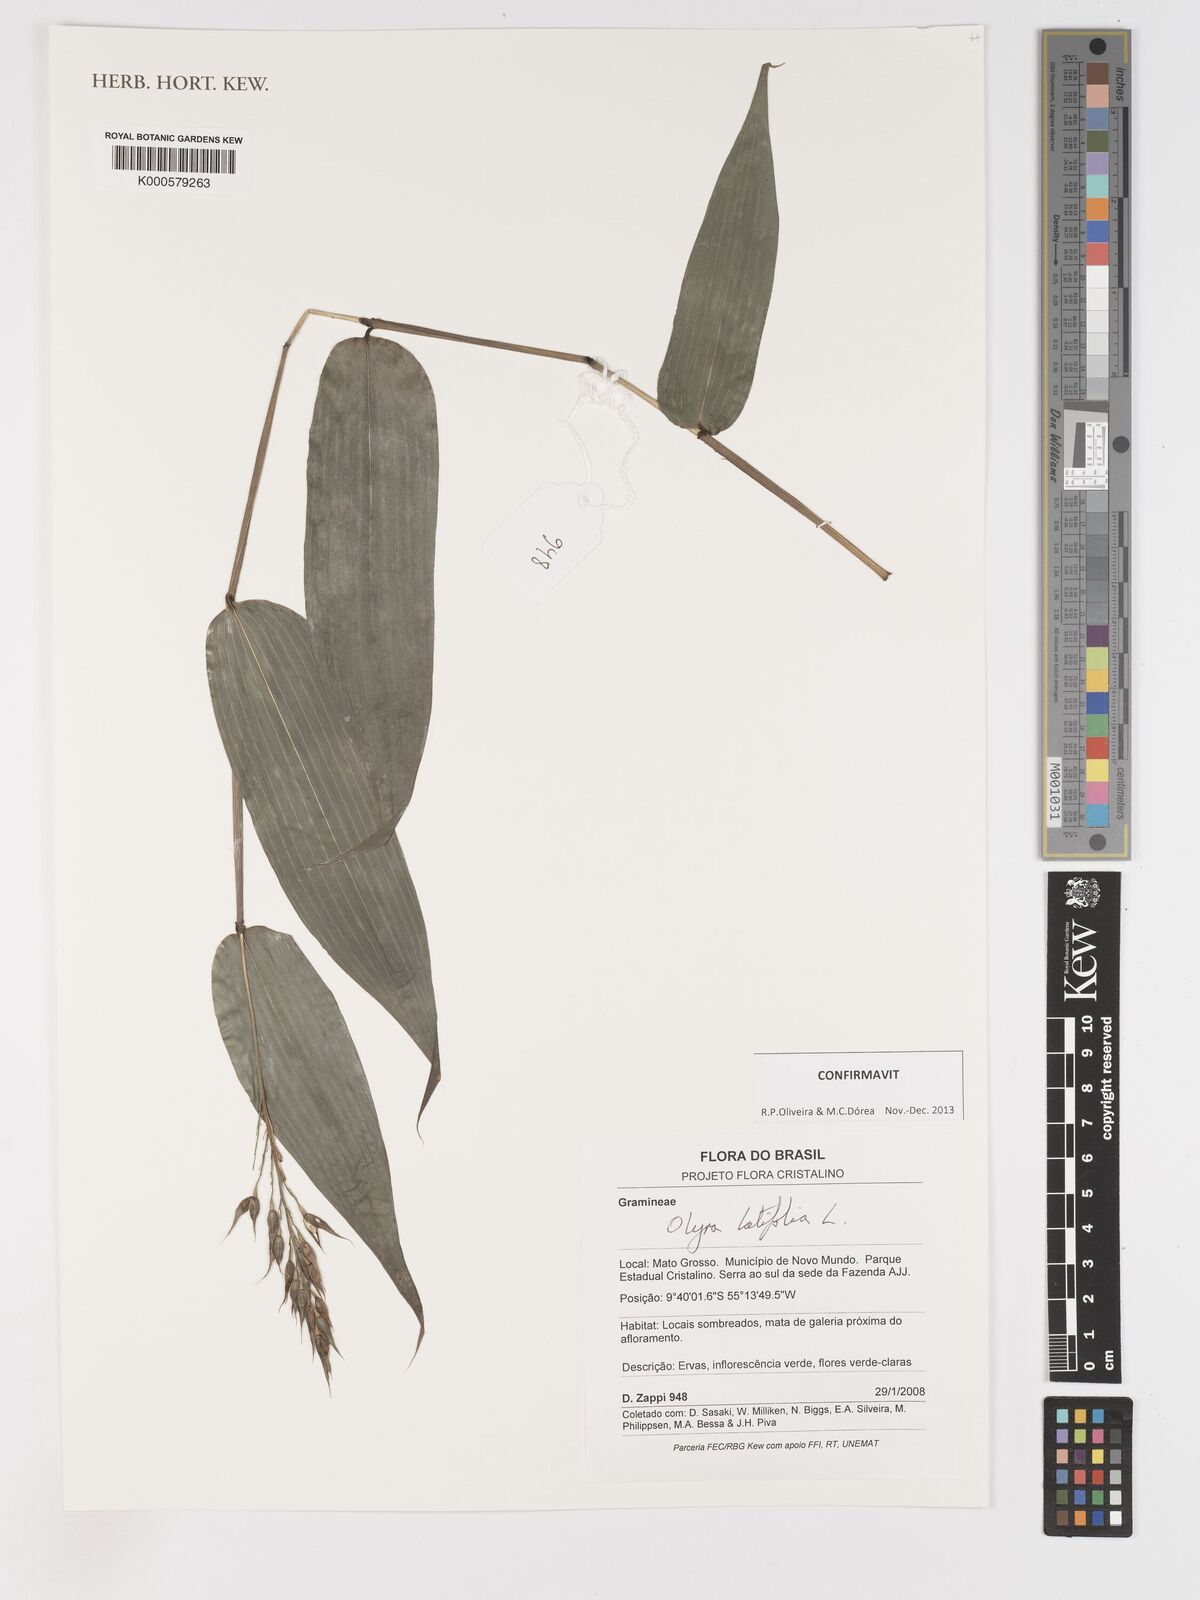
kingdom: Plantae
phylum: Tracheophyta
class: Liliopsida
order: Poales
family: Poaceae
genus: Olyra
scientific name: Olyra latifolia
